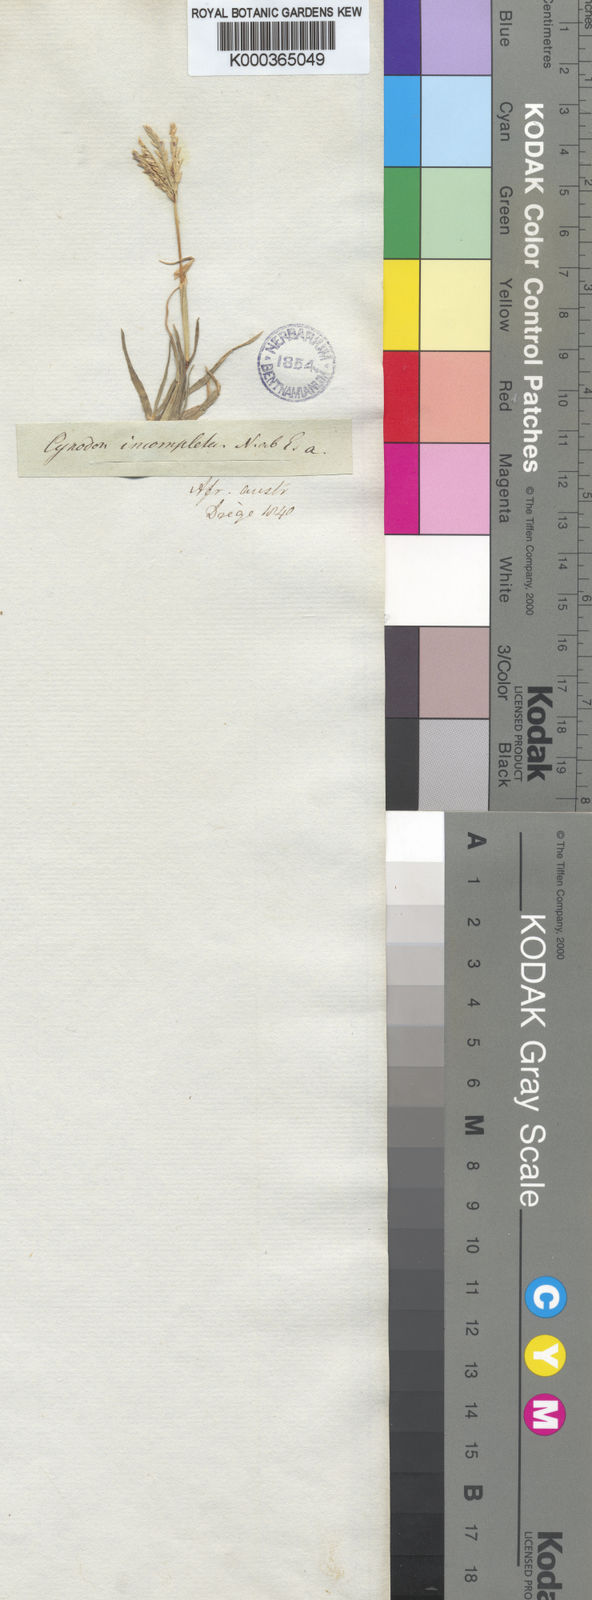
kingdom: Plantae
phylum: Tracheophyta
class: Liliopsida
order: Poales
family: Poaceae
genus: Cynodon
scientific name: Cynodon incompletus
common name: African bermuda-grass
